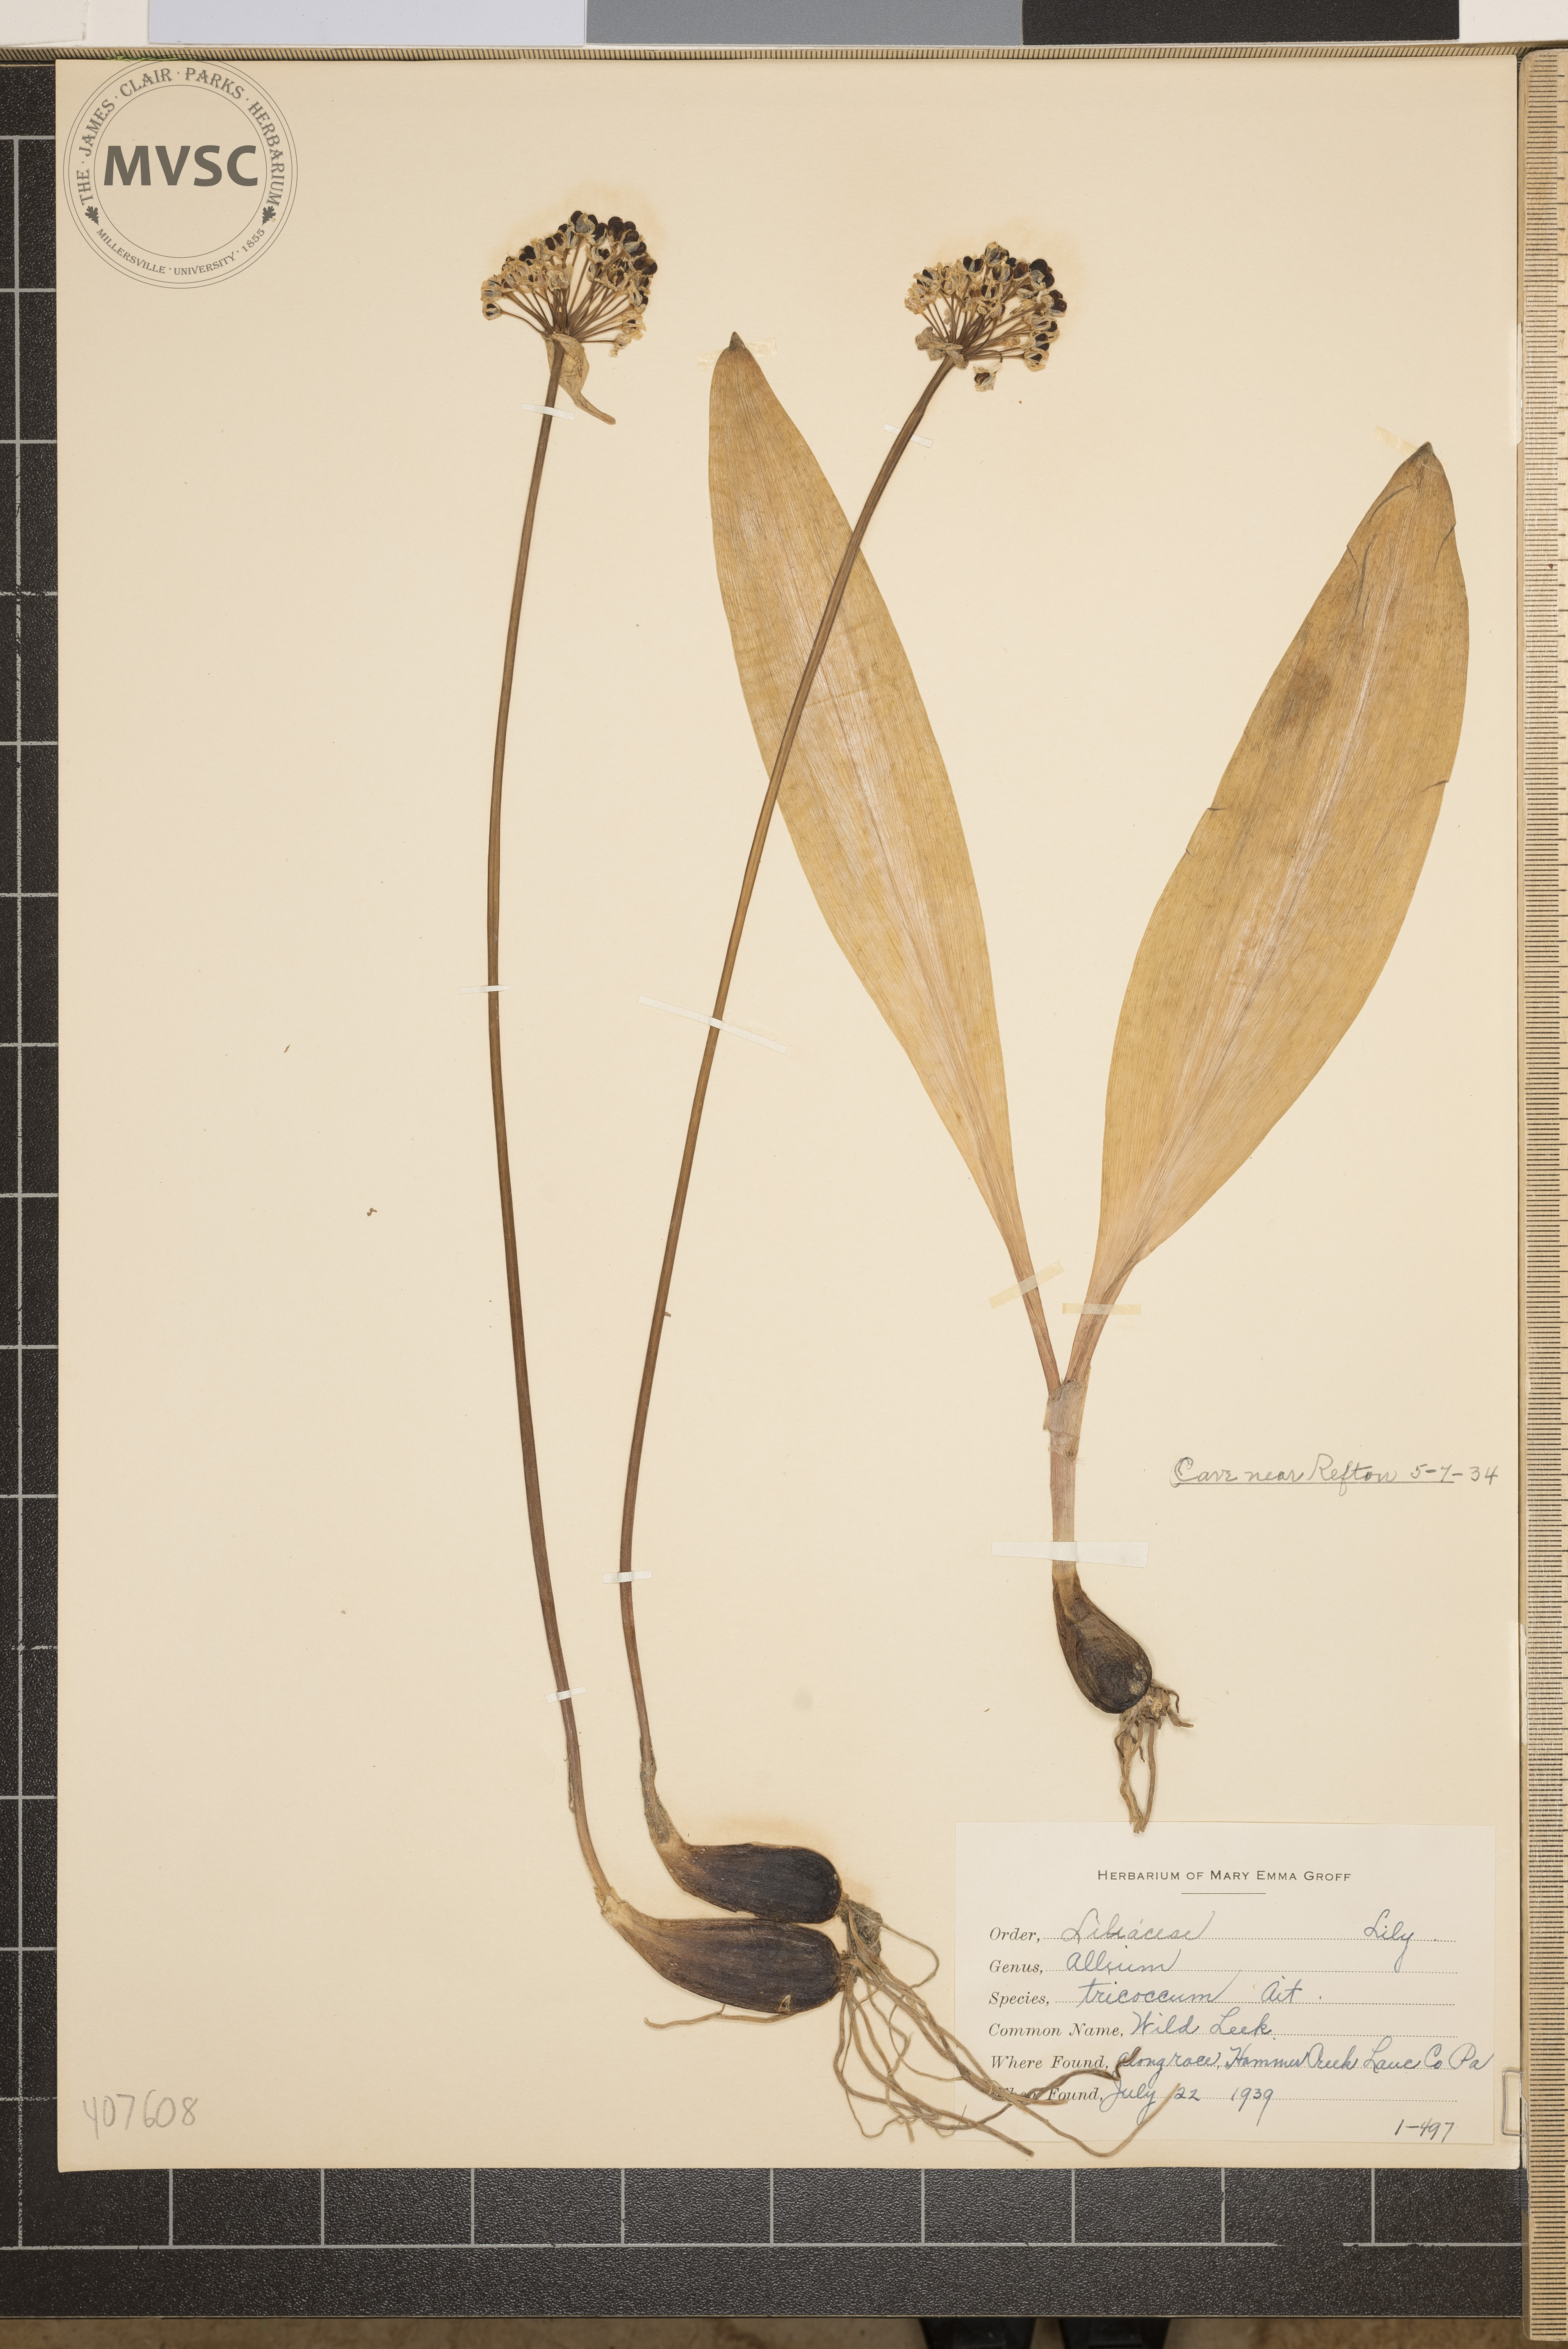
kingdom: Plantae
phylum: Tracheophyta
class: Liliopsida
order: Asparagales
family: Amaryllidaceae
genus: Allium
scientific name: Allium tricoccum
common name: Wild Leek
